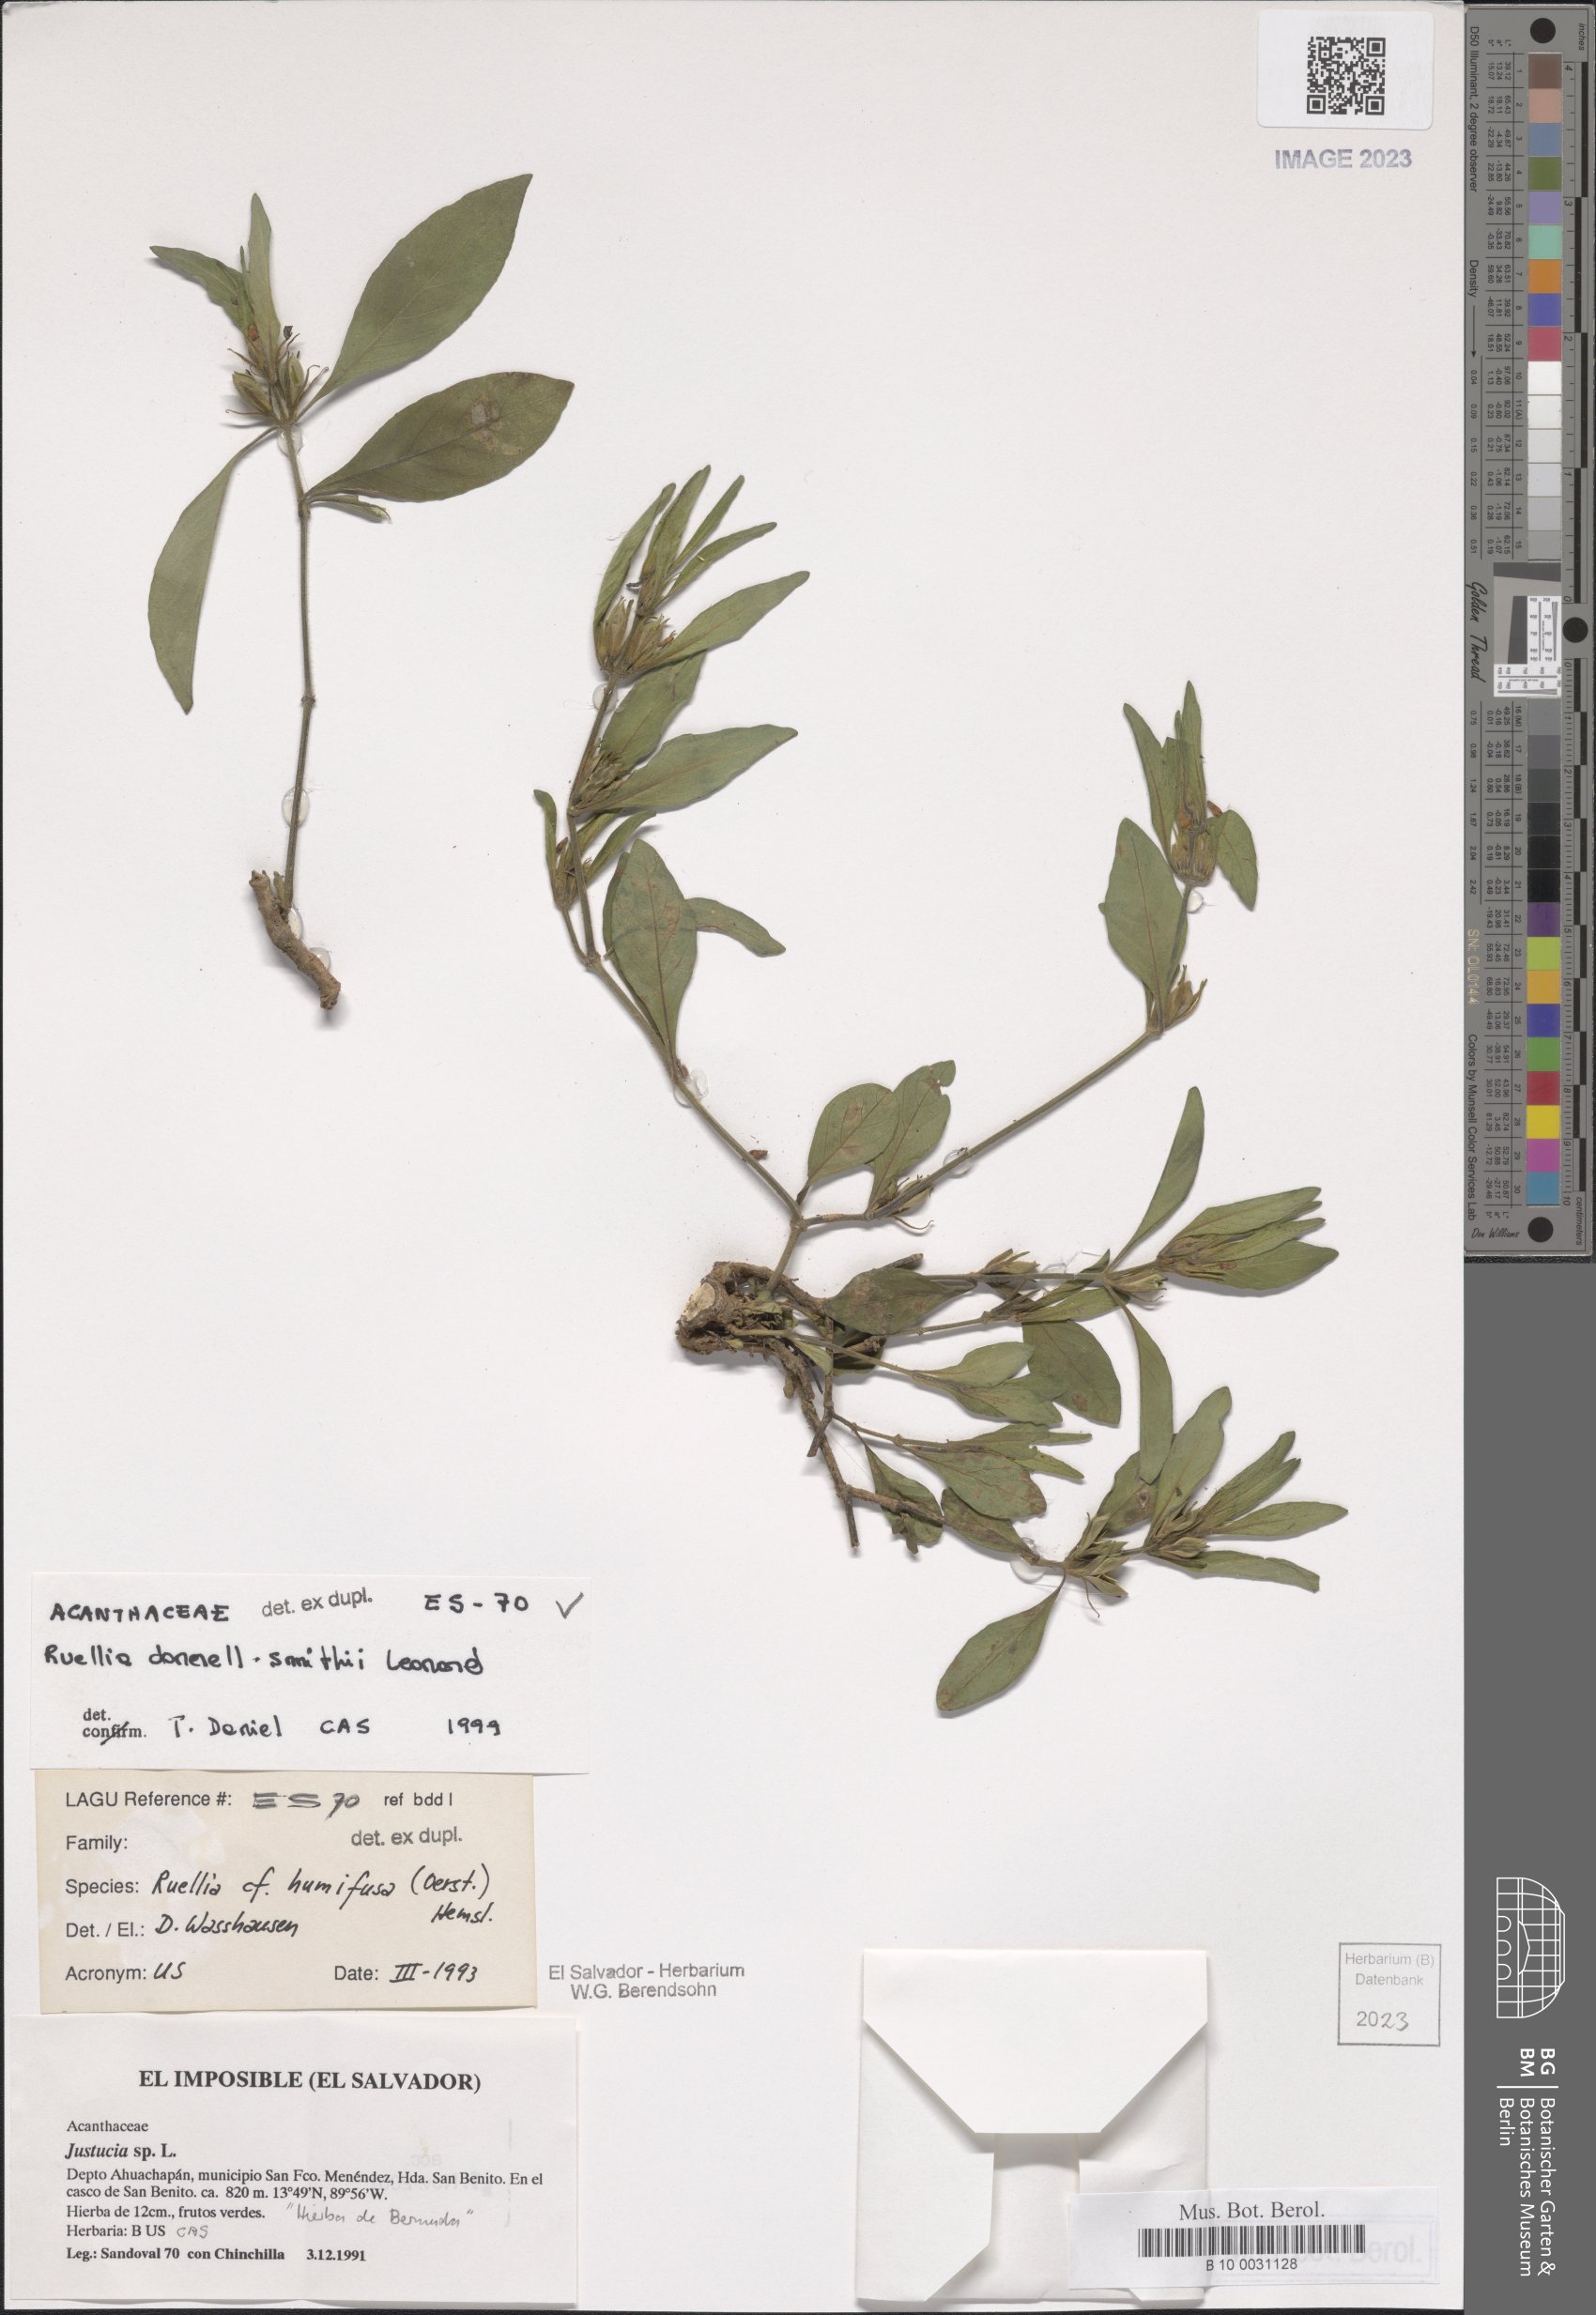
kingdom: Plantae
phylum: Tracheophyta
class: Magnoliopsida
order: Lamiales
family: Acanthaceae
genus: Ruellia
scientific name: Ruellia donnell-smithii
